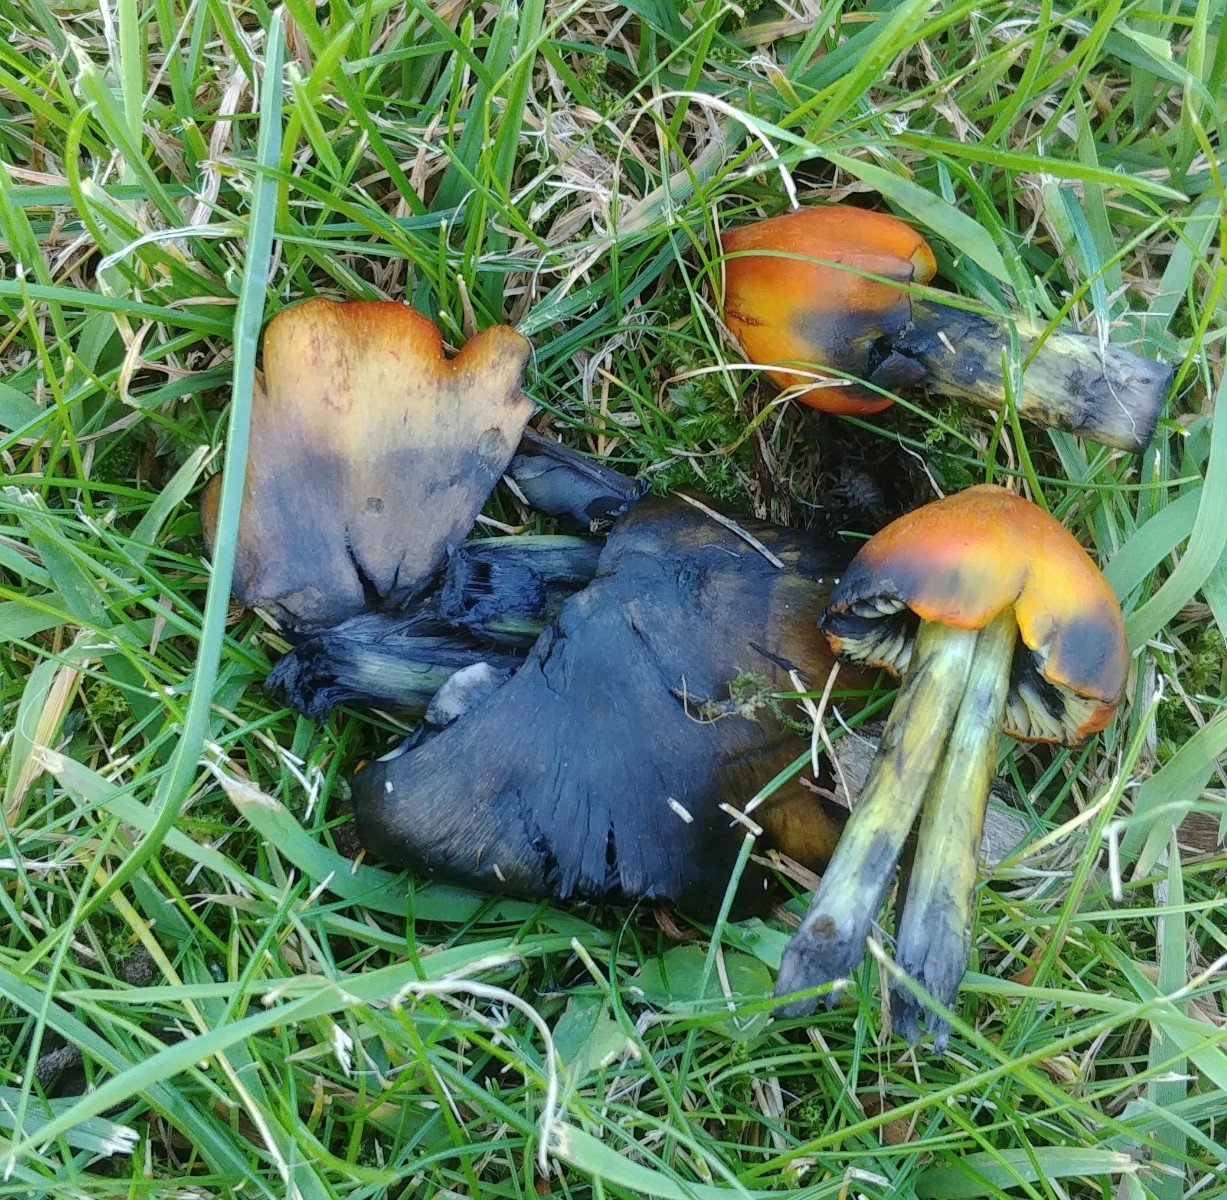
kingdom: Fungi
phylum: Basidiomycota
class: Agaricomycetes
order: Agaricales
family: Hygrophoraceae
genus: Hygrocybe
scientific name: Hygrocybe conica
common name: kegle-vokshat
